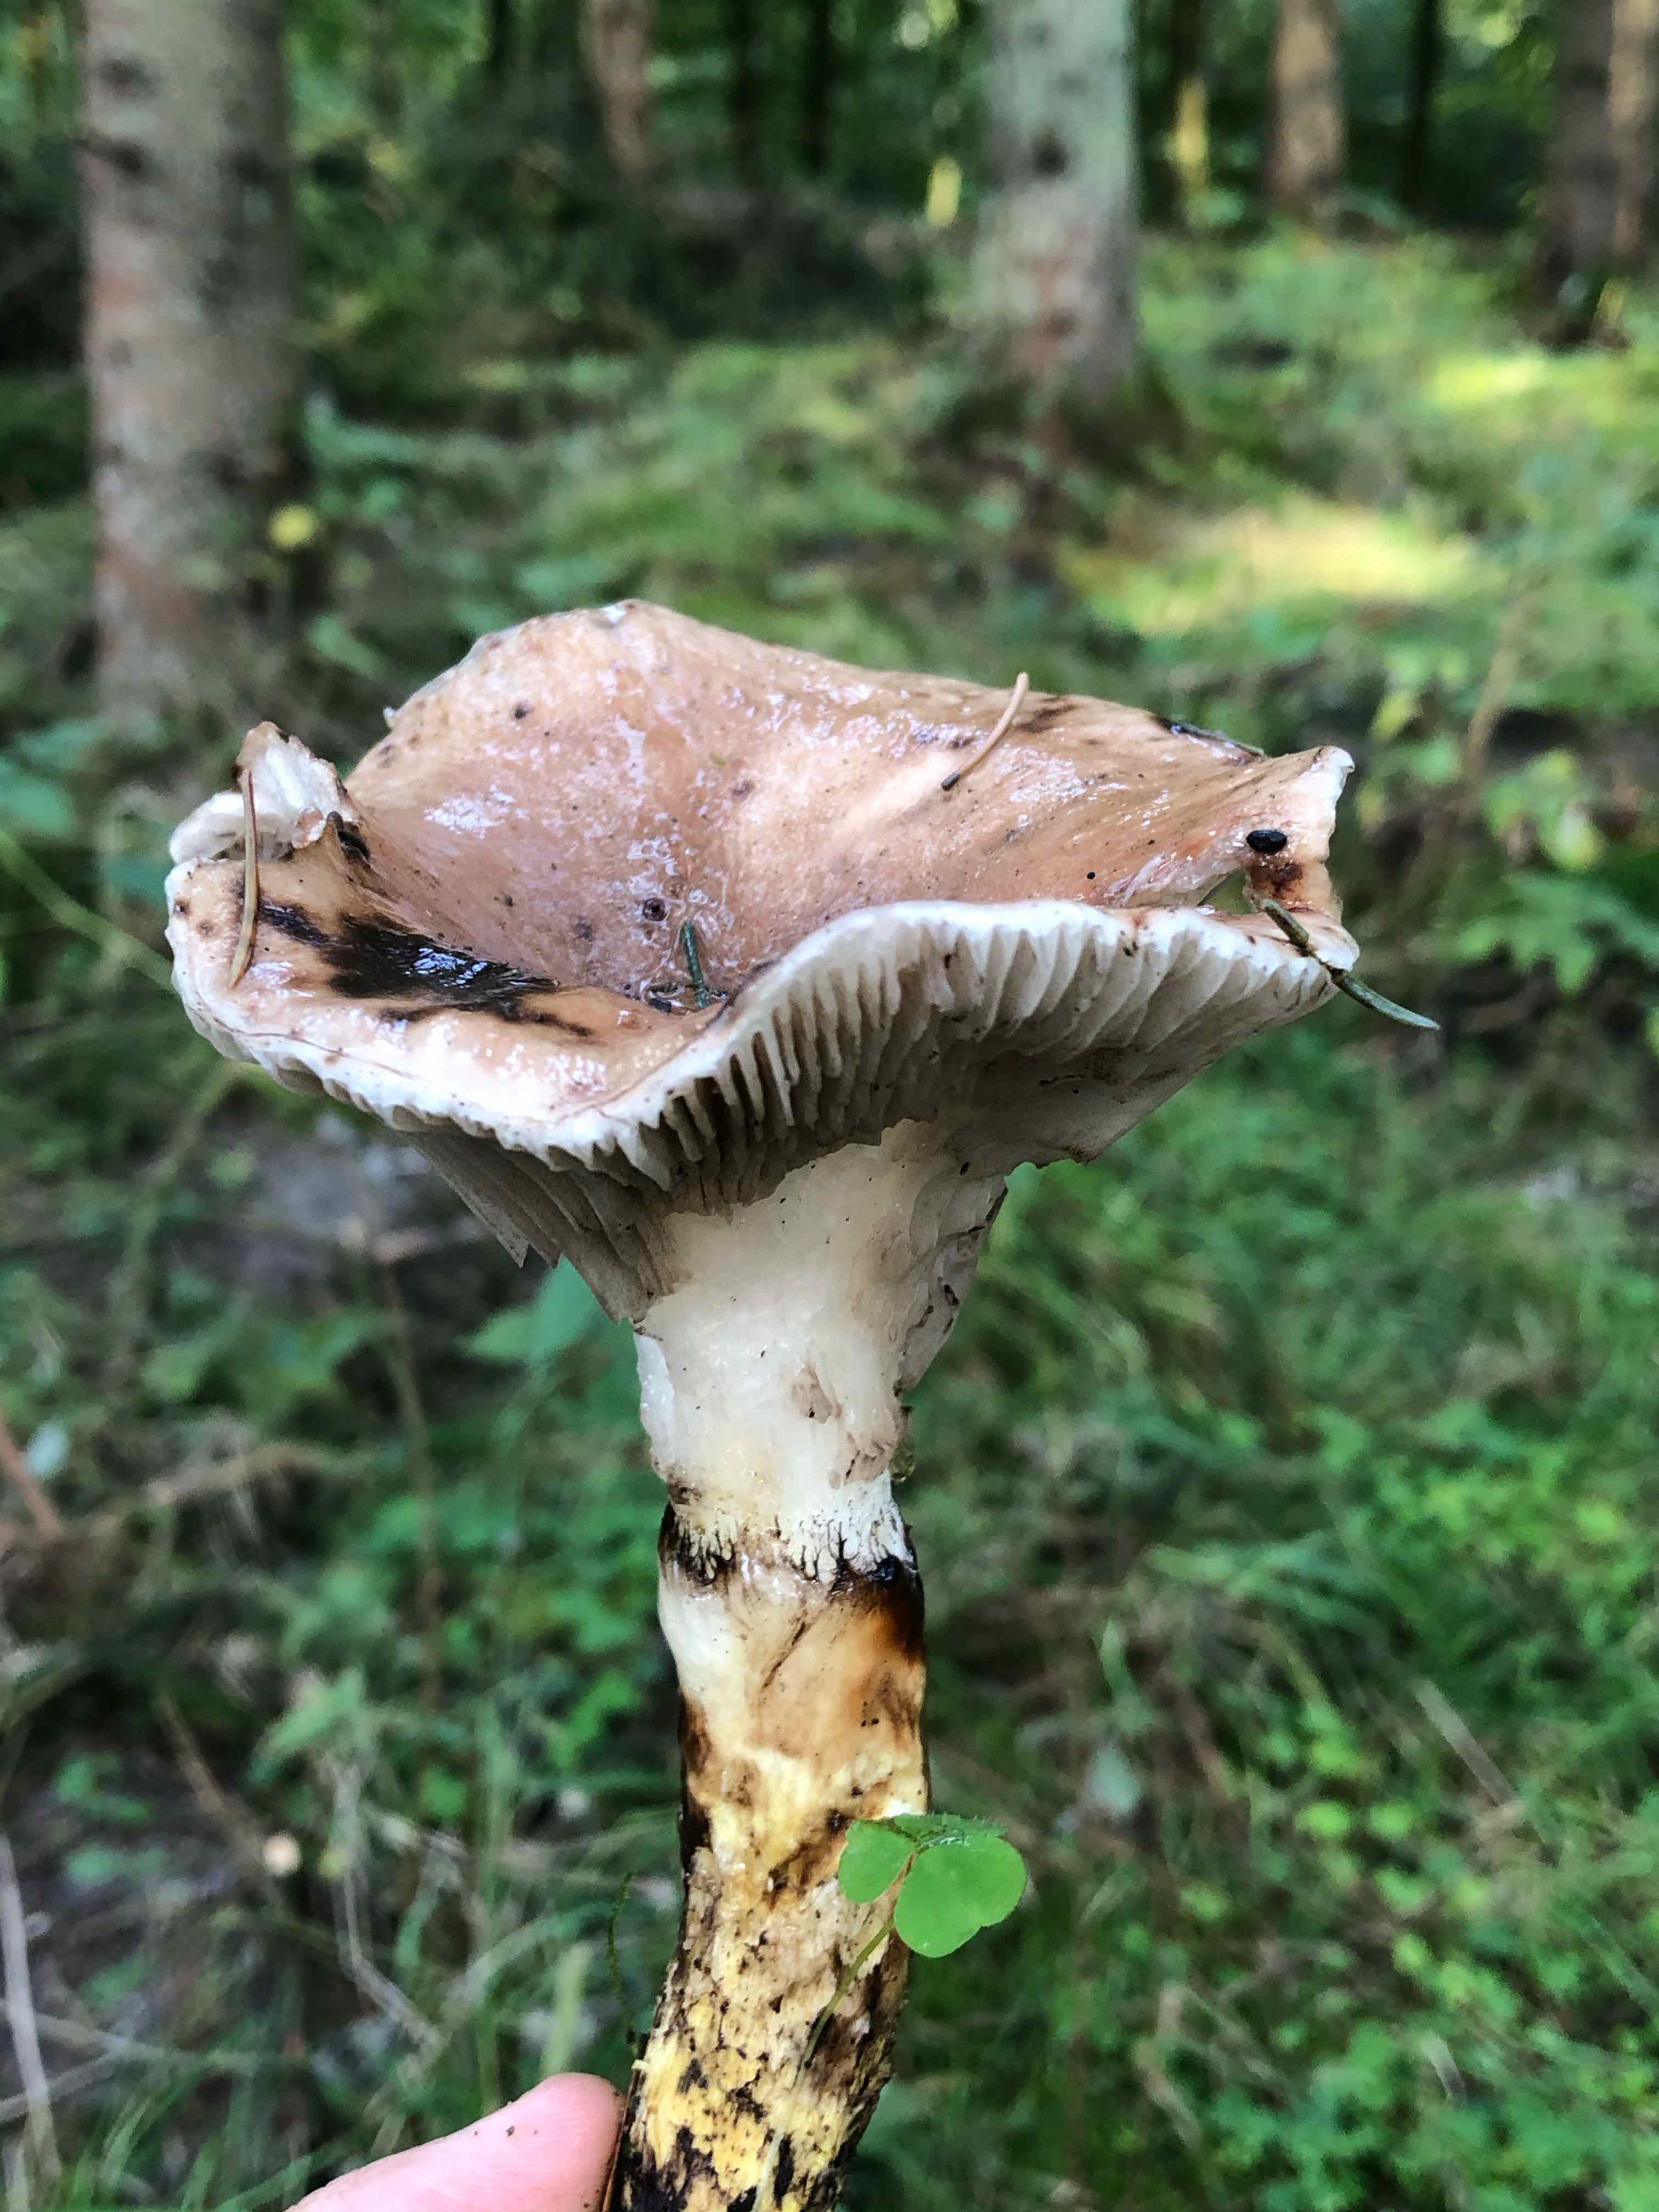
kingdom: Fungi
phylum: Basidiomycota
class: Agaricomycetes
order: Boletales
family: Gomphidiaceae
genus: Gomphidius
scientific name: Gomphidius glutinosus
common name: grå slimslør
